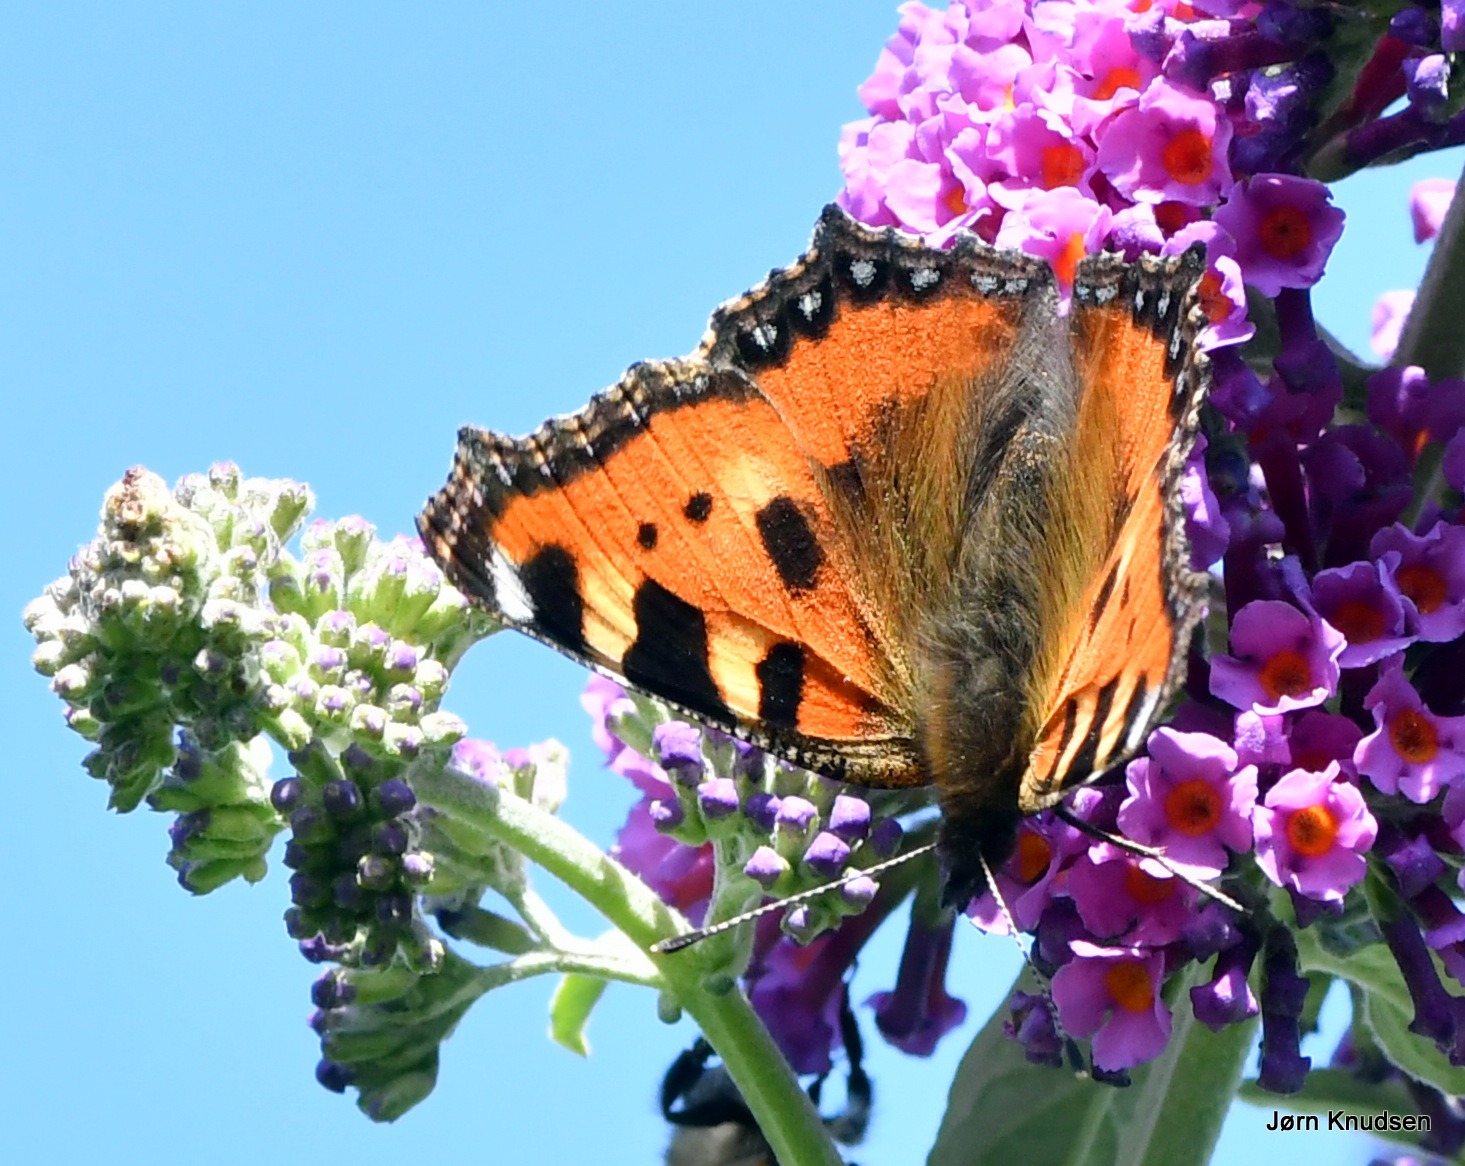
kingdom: Animalia
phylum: Arthropoda
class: Insecta
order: Lepidoptera
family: Nymphalidae
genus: Aglais
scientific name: Aglais urticae
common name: Nældens takvinge
